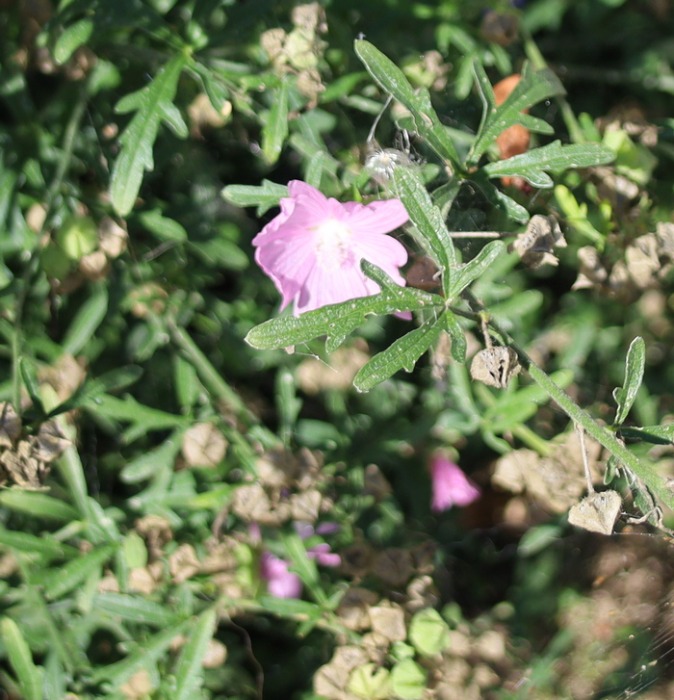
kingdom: Plantae
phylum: Tracheophyta
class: Magnoliopsida
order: Malvales
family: Malvaceae
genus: Malva
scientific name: Malva alcea
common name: Rosen-katost
